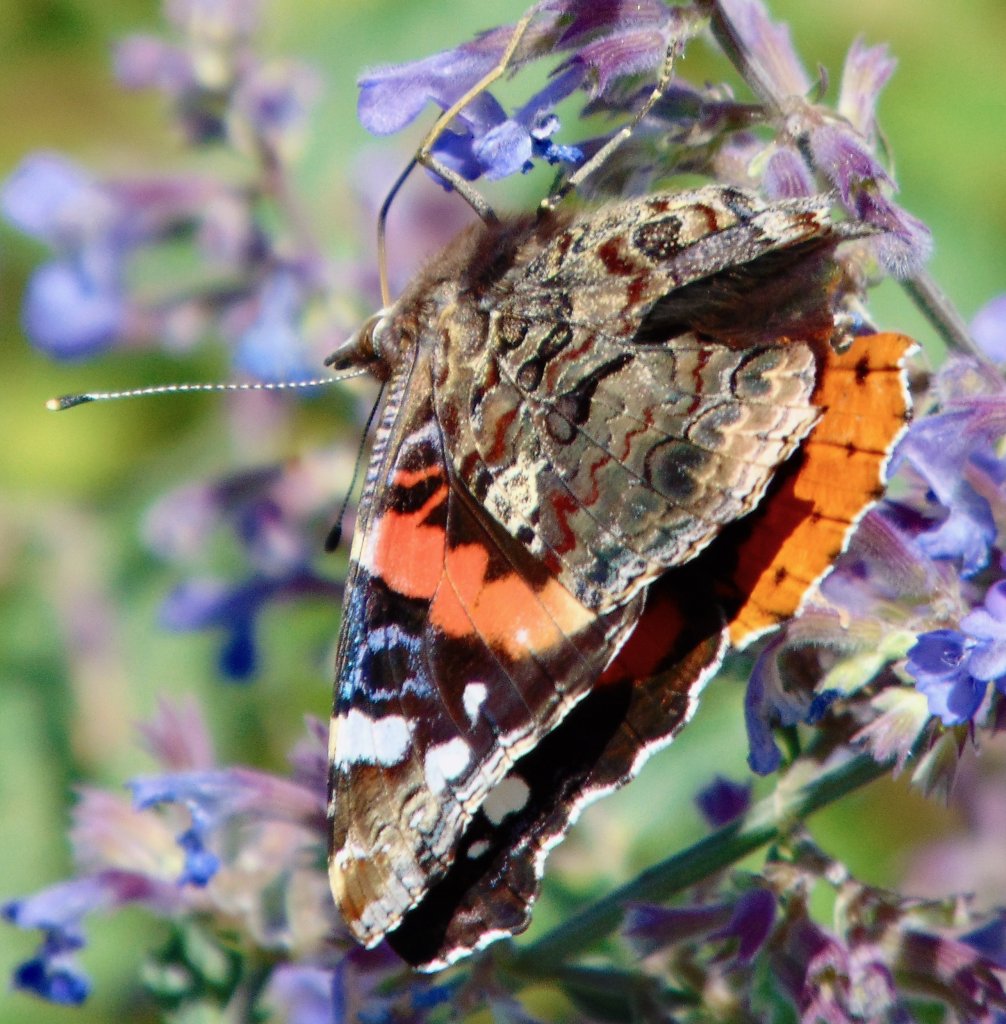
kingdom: Animalia
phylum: Arthropoda
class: Insecta
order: Lepidoptera
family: Nymphalidae
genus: Vanessa
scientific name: Vanessa atalanta
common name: Red Admiral
